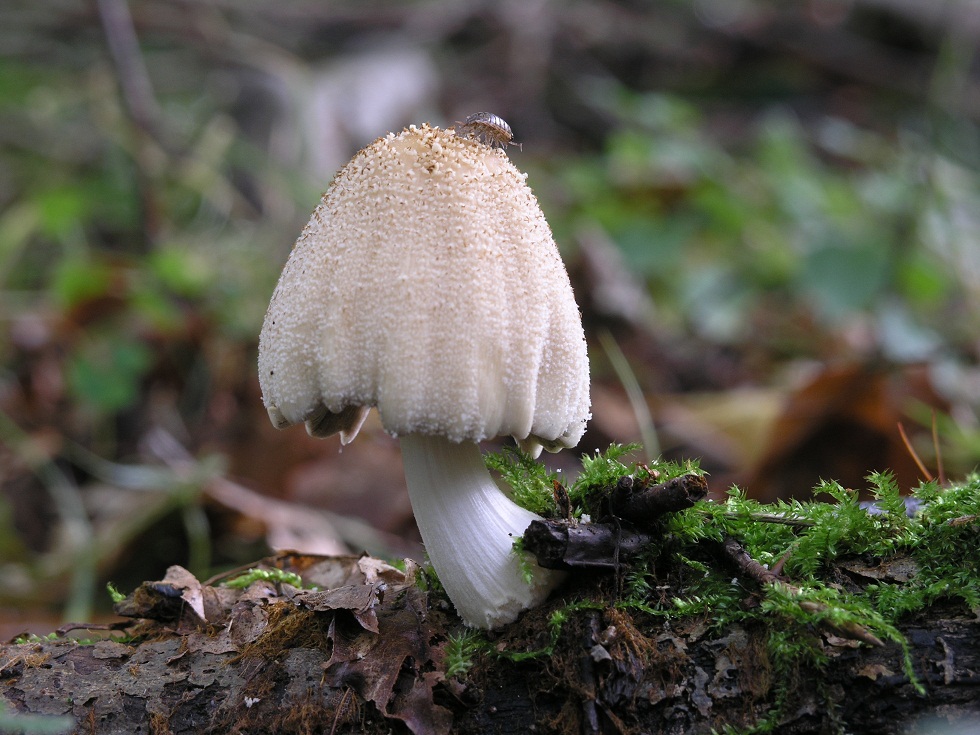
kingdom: Fungi
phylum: Basidiomycota
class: Agaricomycetes
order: Agaricales
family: Psathyrellaceae
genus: Coprinellus
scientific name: Coprinellus domesticus
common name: hus-blækhat
